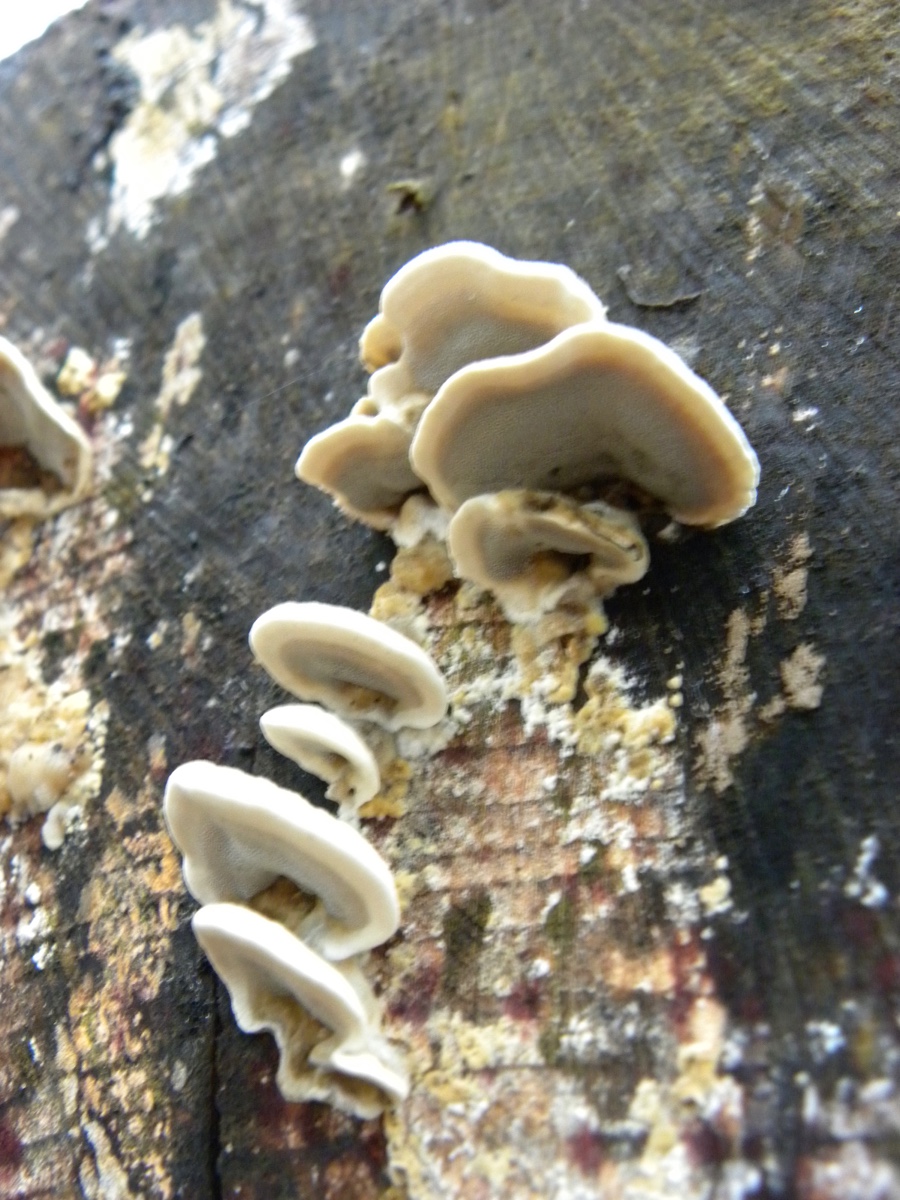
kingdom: Fungi
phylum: Basidiomycota
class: Agaricomycetes
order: Polyporales
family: Phanerochaetaceae
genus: Bjerkandera
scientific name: Bjerkandera fumosa
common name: grågul sodporesvamp
